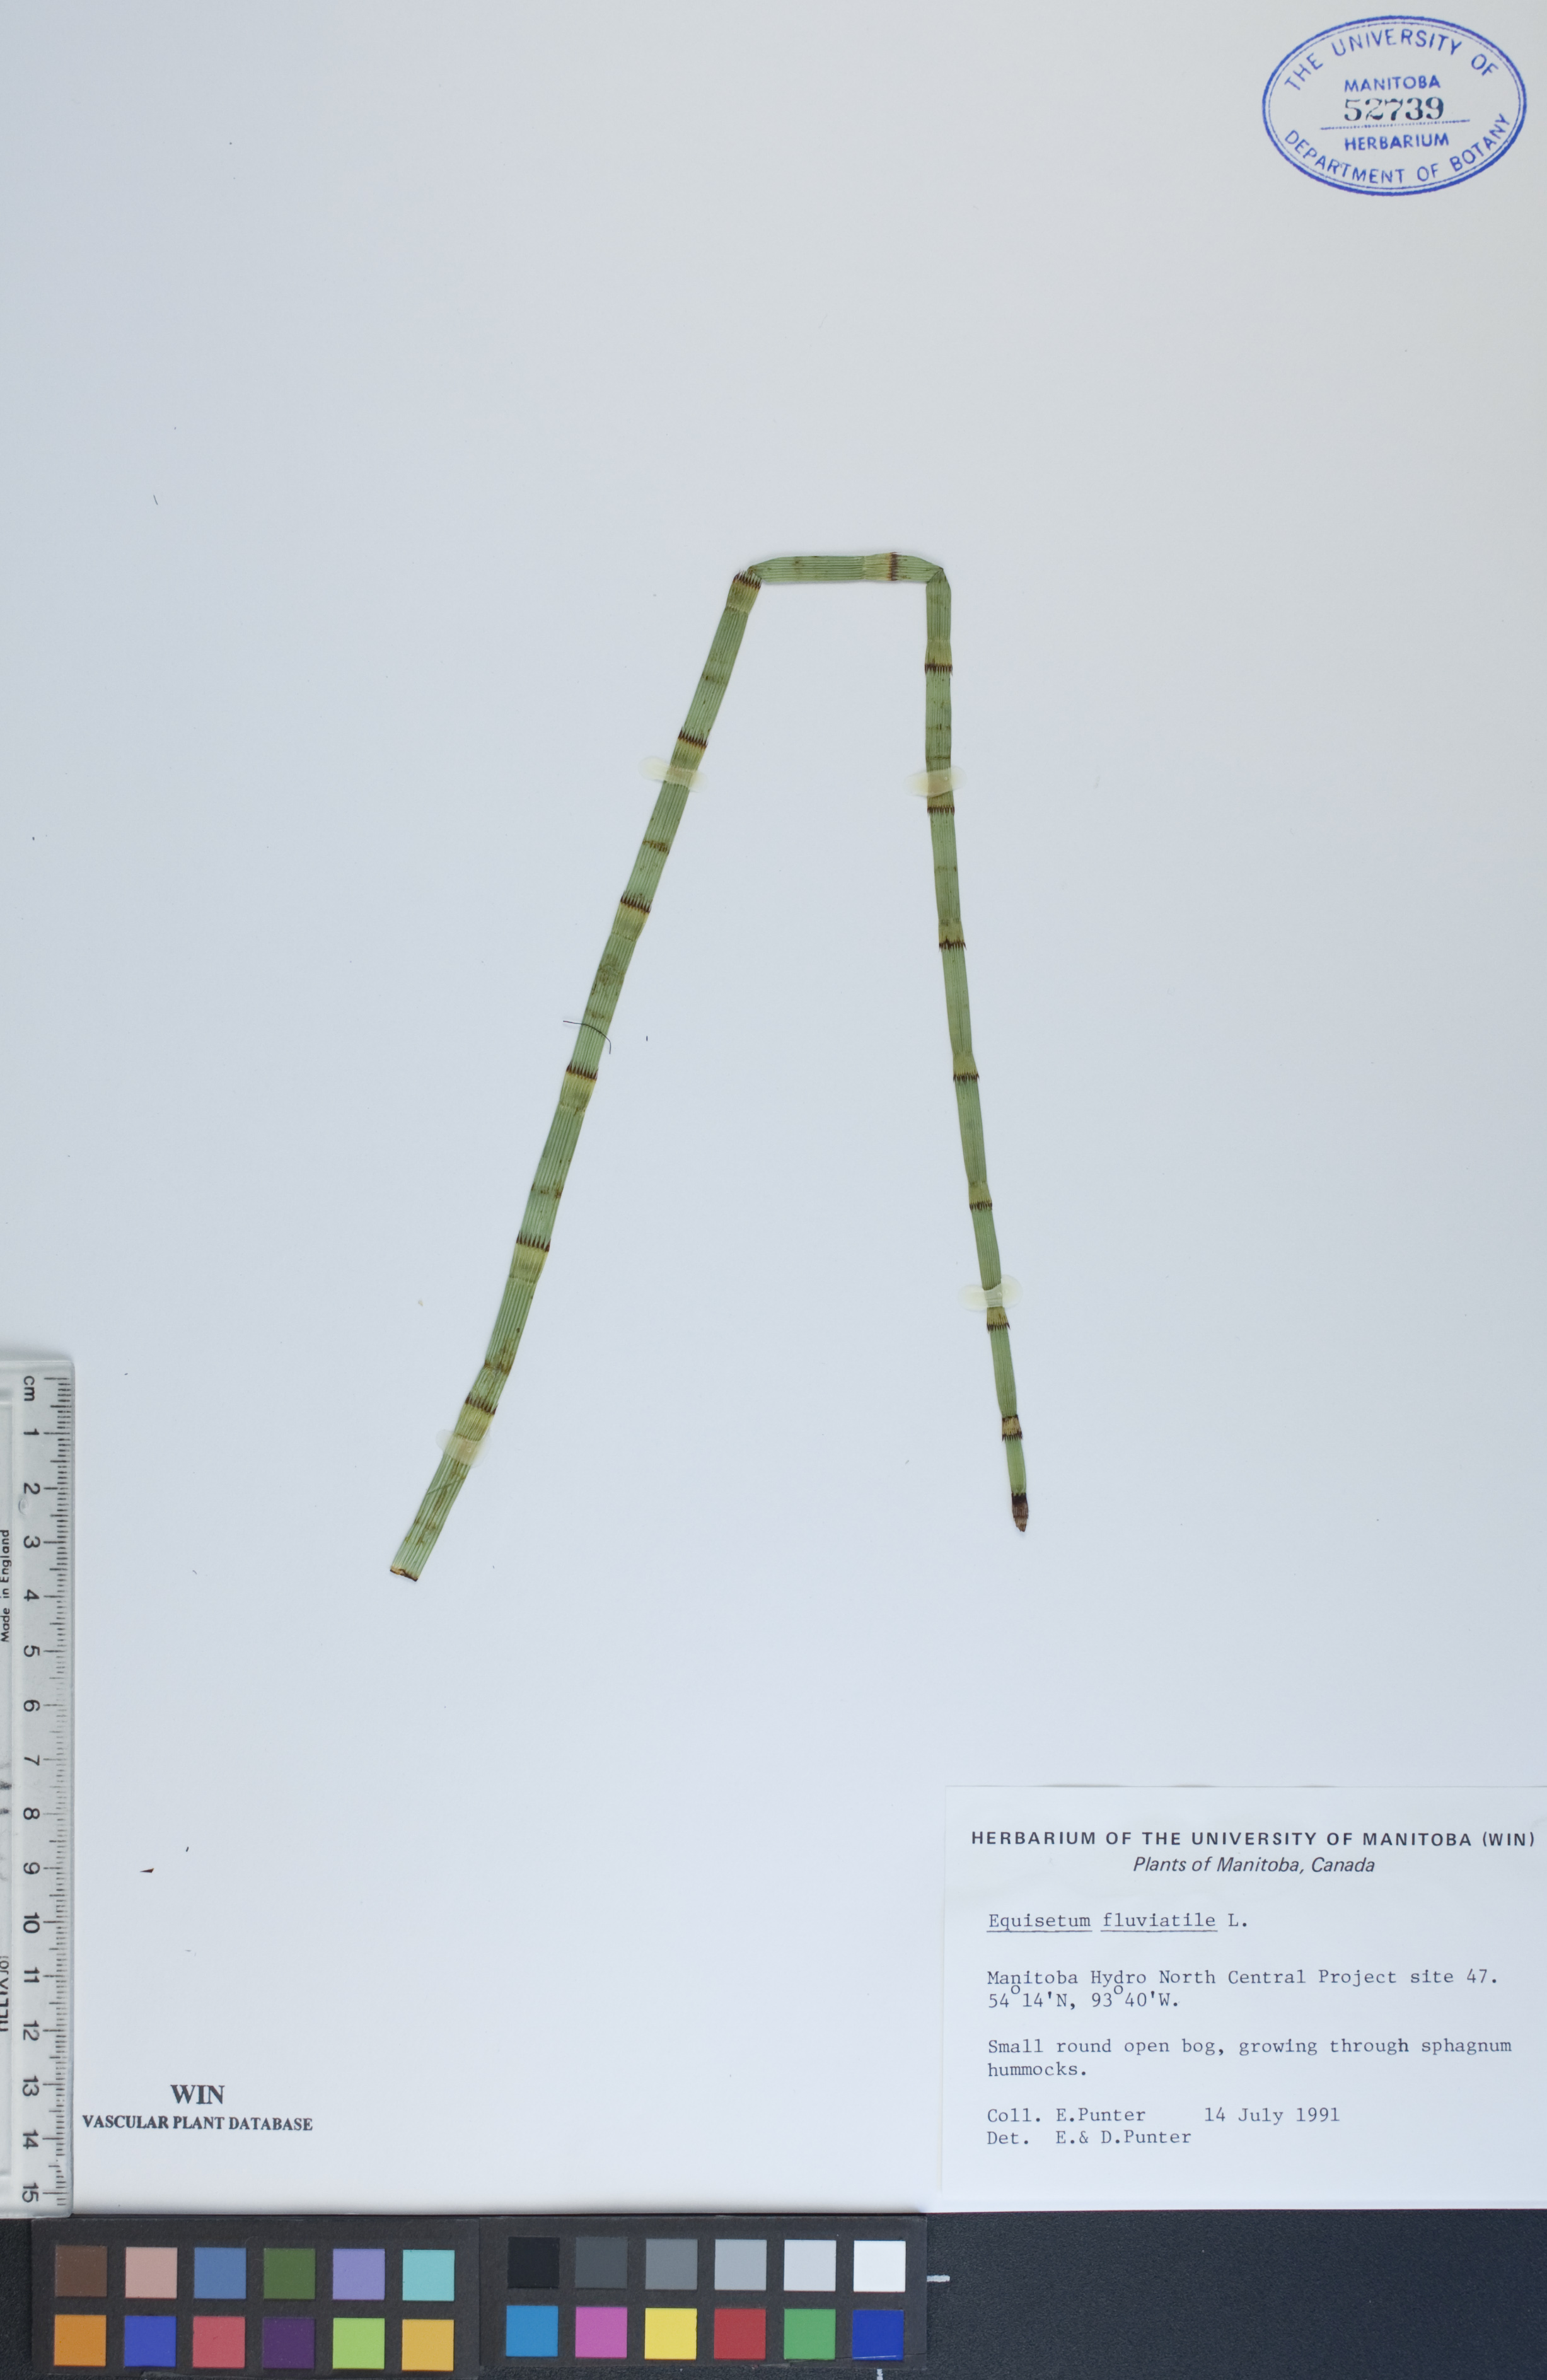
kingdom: Plantae
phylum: Tracheophyta
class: Polypodiopsida
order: Equisetales
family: Equisetaceae
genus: Equisetum
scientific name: Equisetum fluviatile
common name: Water horsetail
